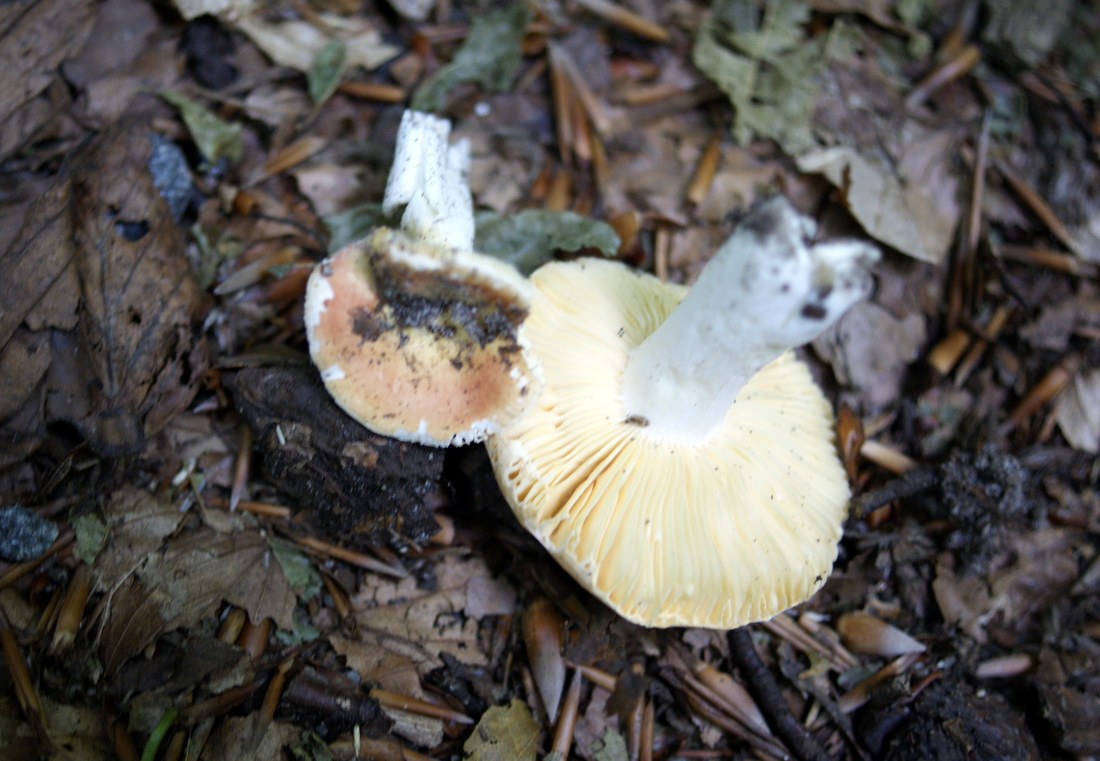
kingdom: Fungi
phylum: Basidiomycota
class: Agaricomycetes
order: Russulales
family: Russulaceae
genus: Russula
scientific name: Russula risigallina
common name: abrikos-skørhat
